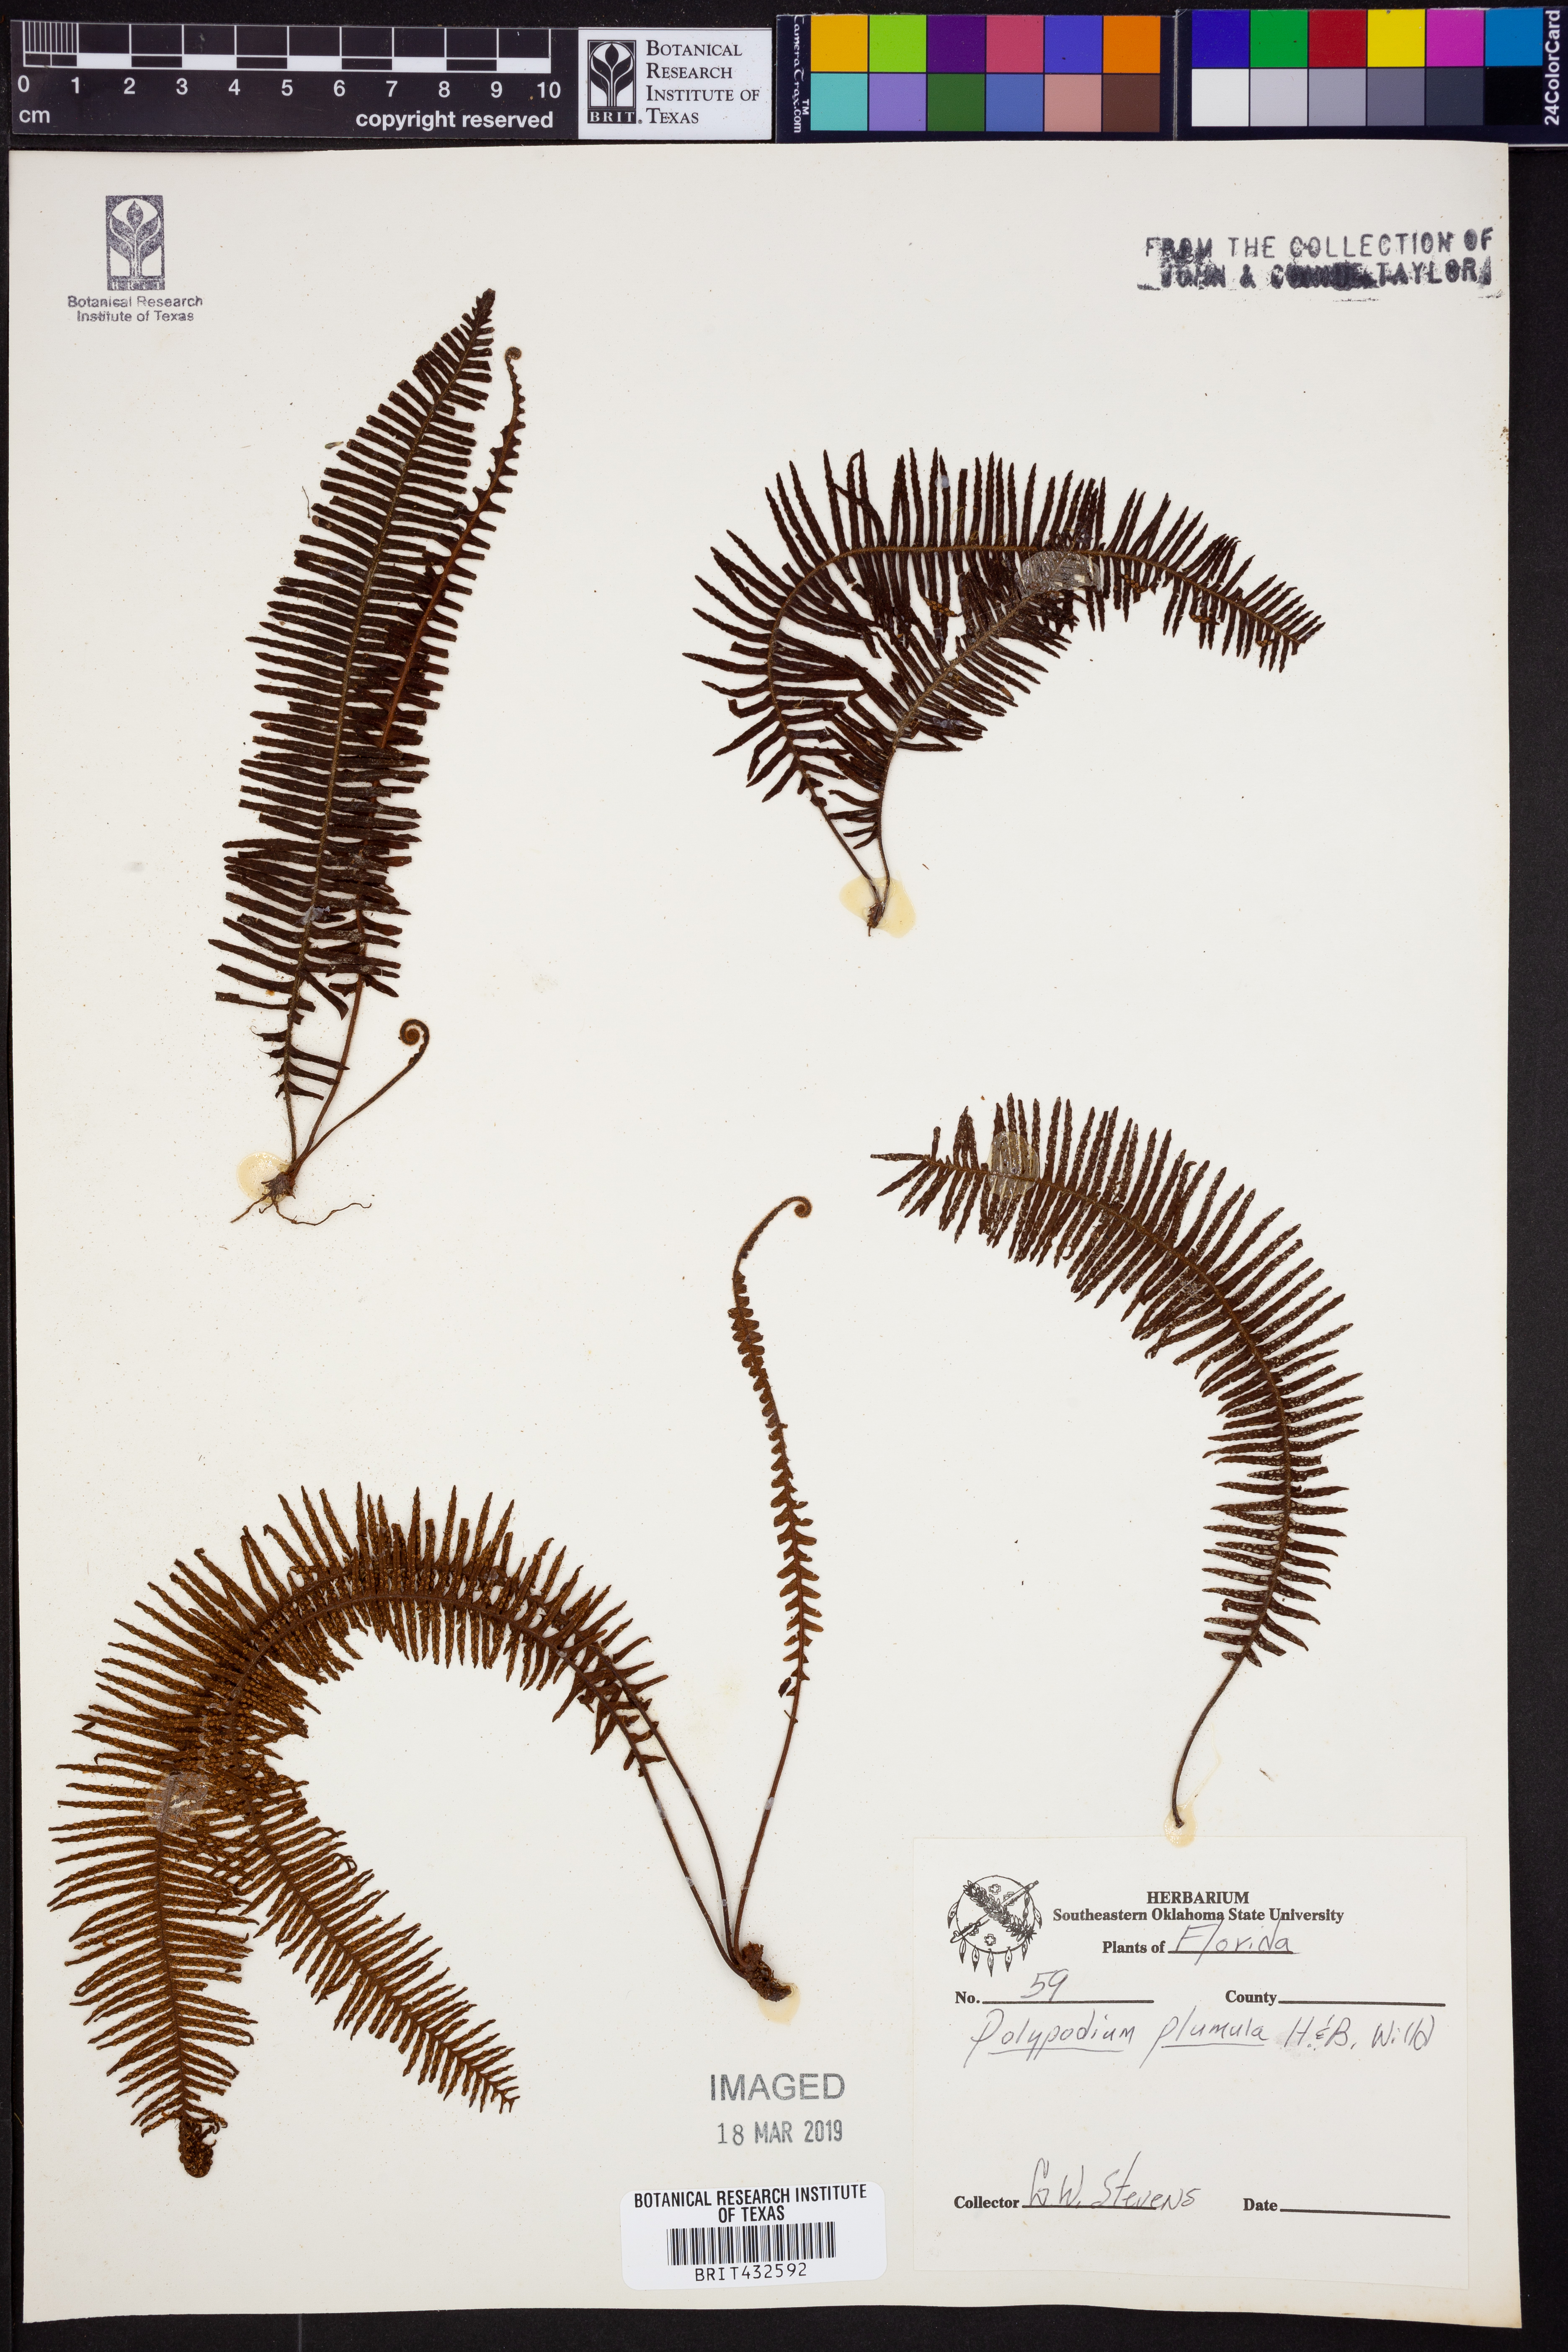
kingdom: Plantae
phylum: Tracheophyta
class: Polypodiopsida
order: Polypodiales
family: Polypodiaceae
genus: Pecluma
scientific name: Pecluma plumula
